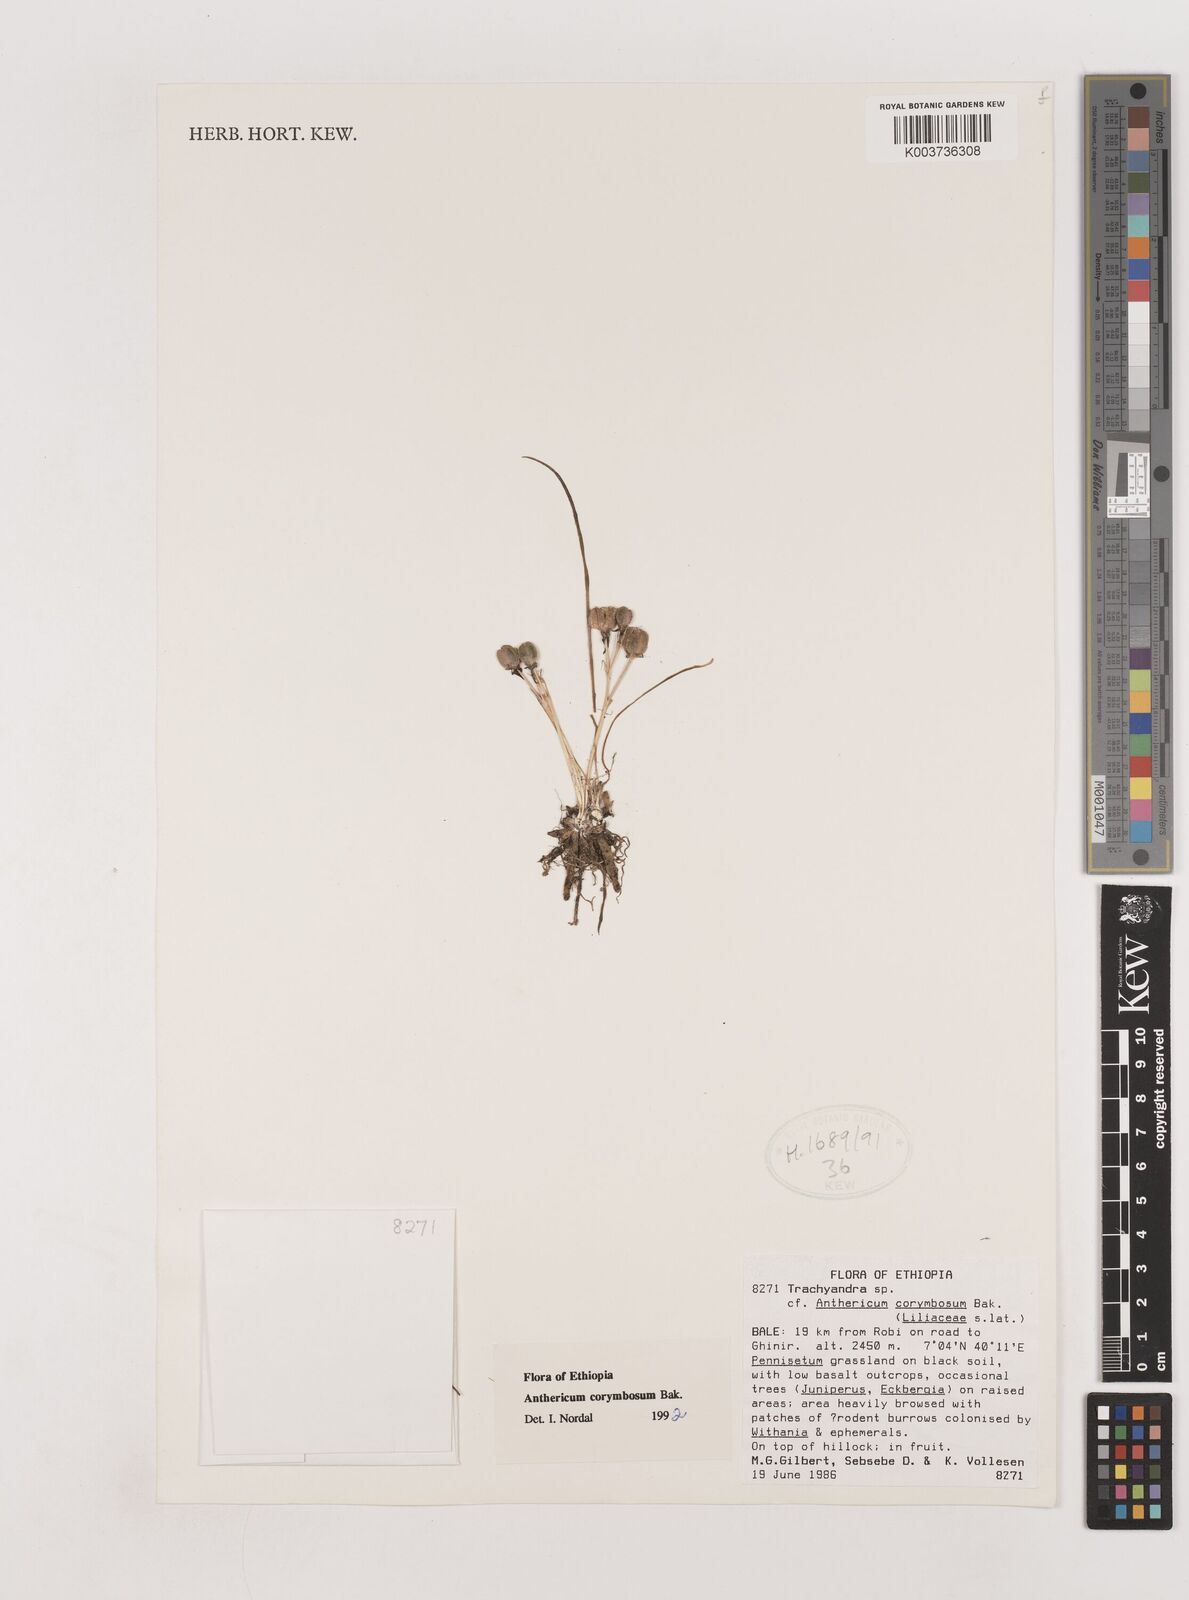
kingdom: Plantae
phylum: Tracheophyta
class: Liliopsida
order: Asparagales
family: Asparagaceae
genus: Anthericum
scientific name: Anthericum corymbosum
